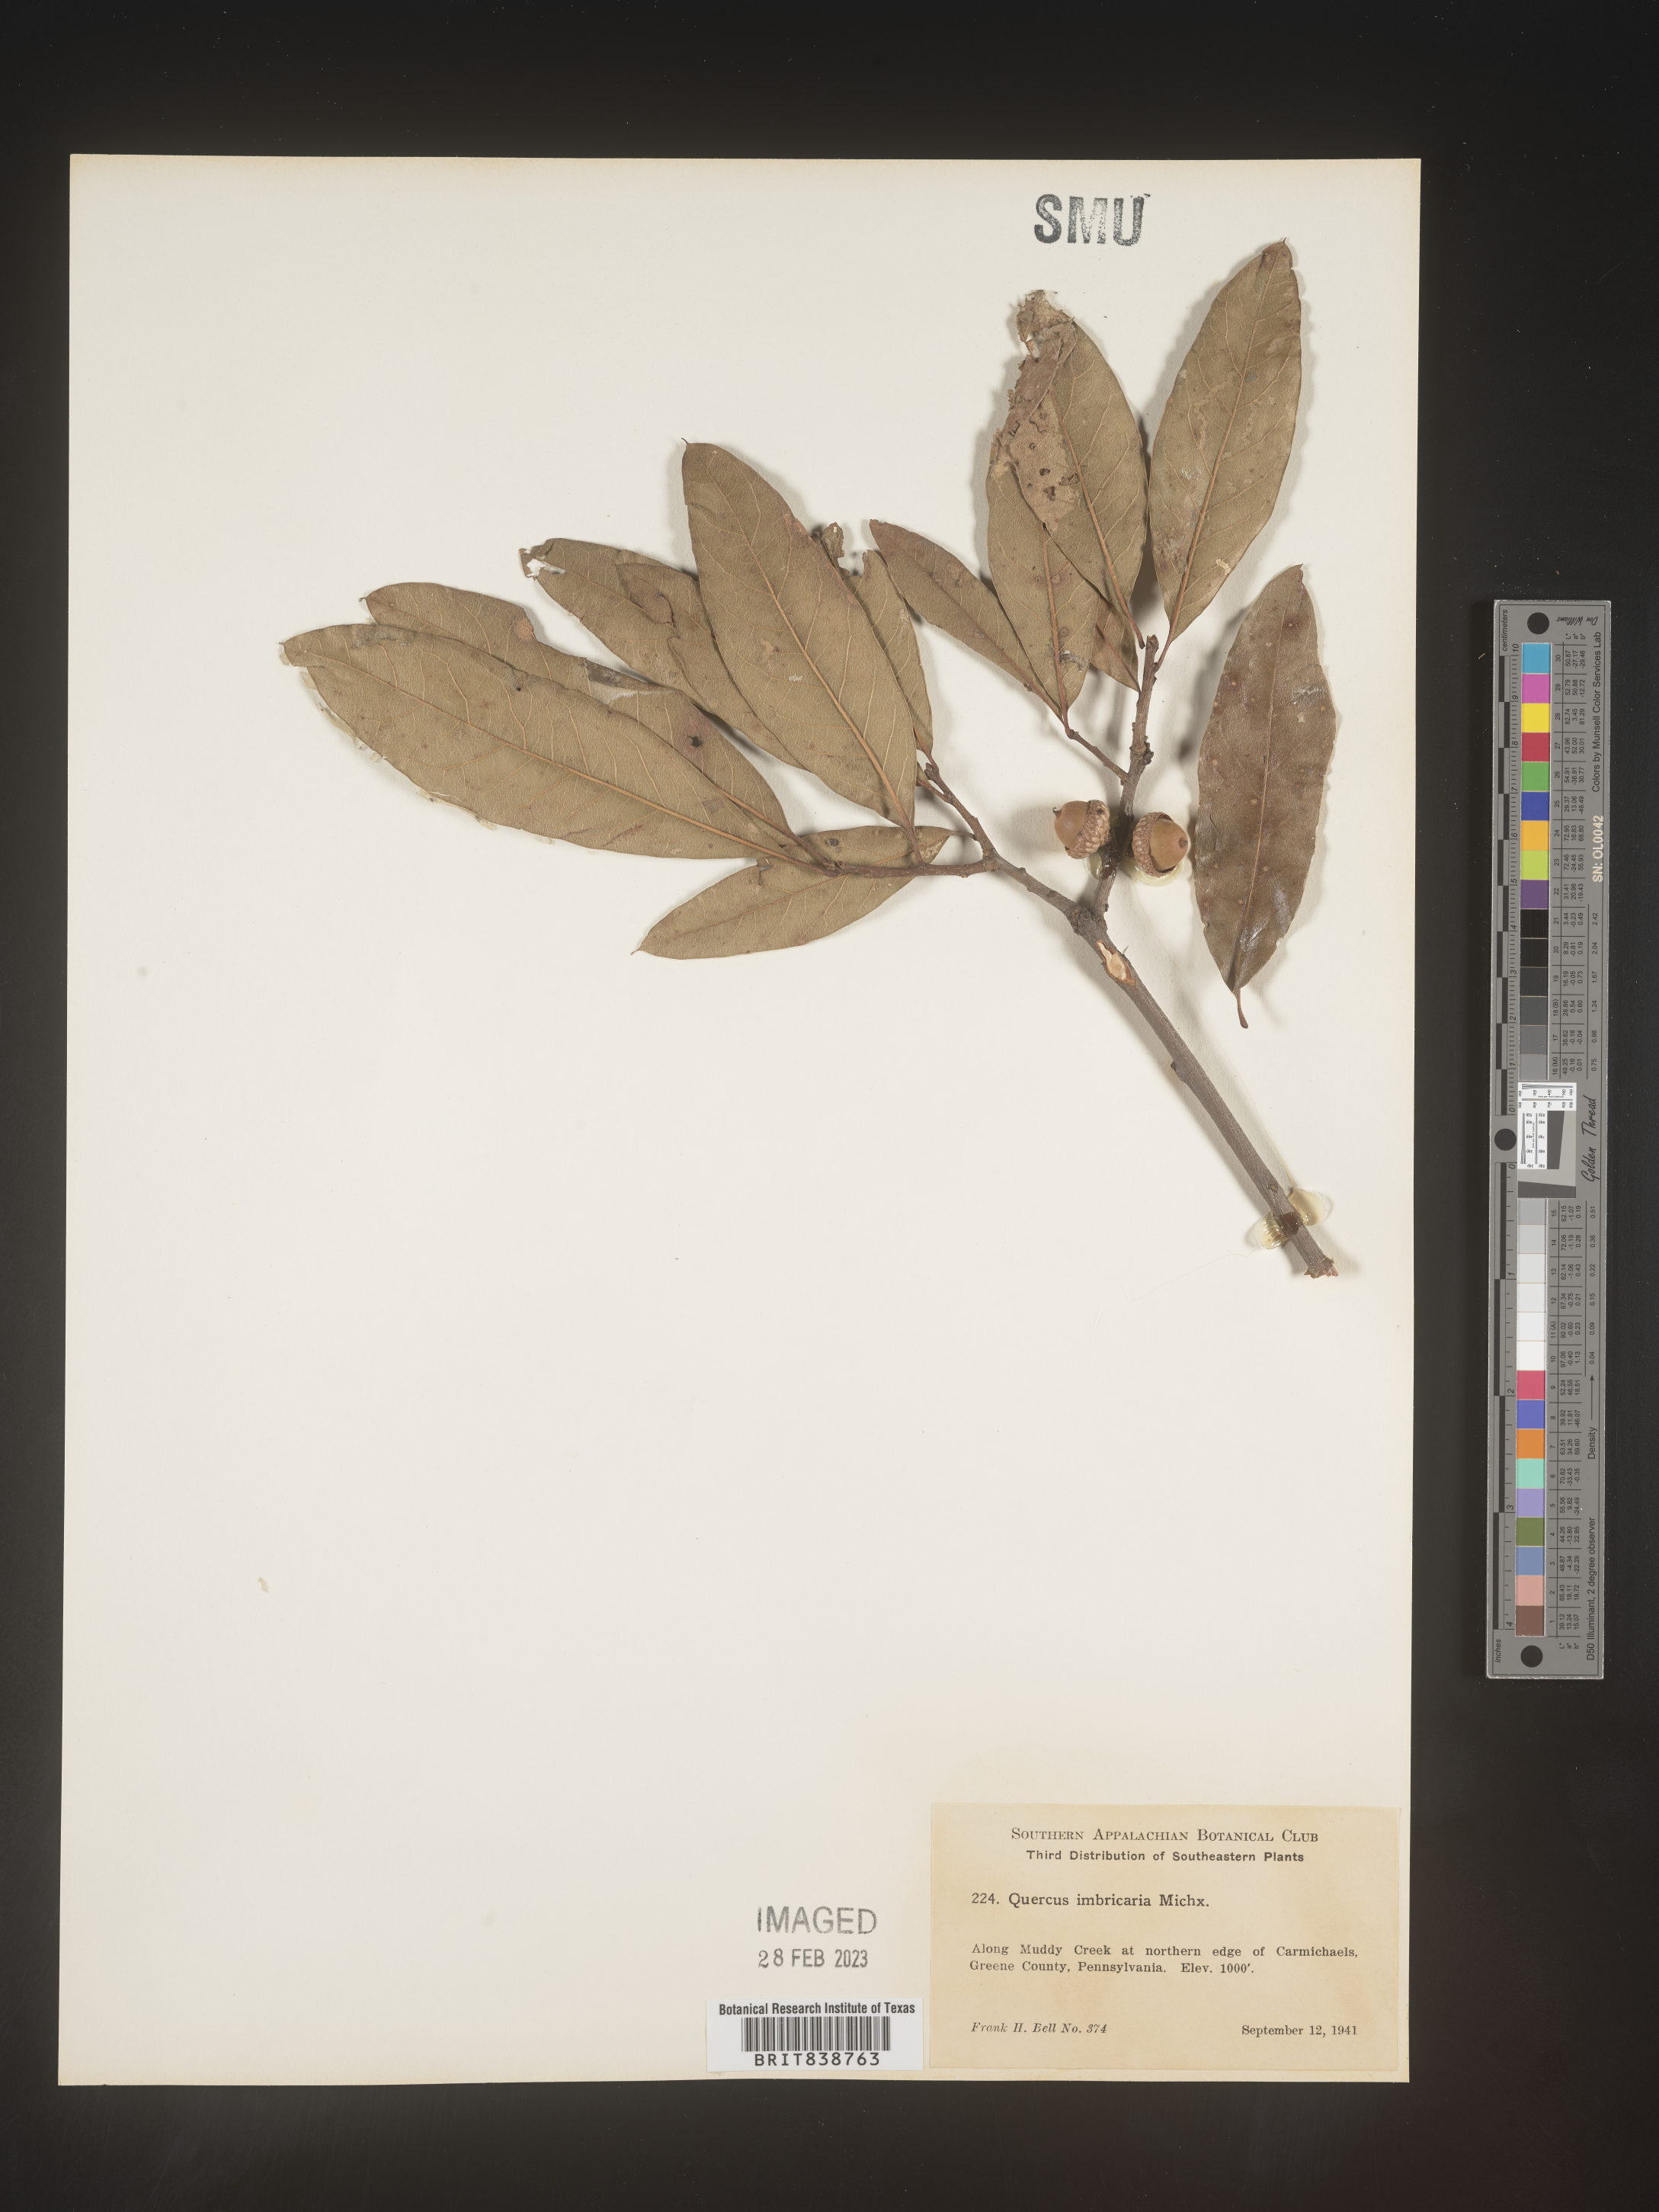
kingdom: Plantae
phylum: Tracheophyta
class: Magnoliopsida
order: Fagales
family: Fagaceae
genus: Quercus
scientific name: Quercus imbricaria
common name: Shingle oak
